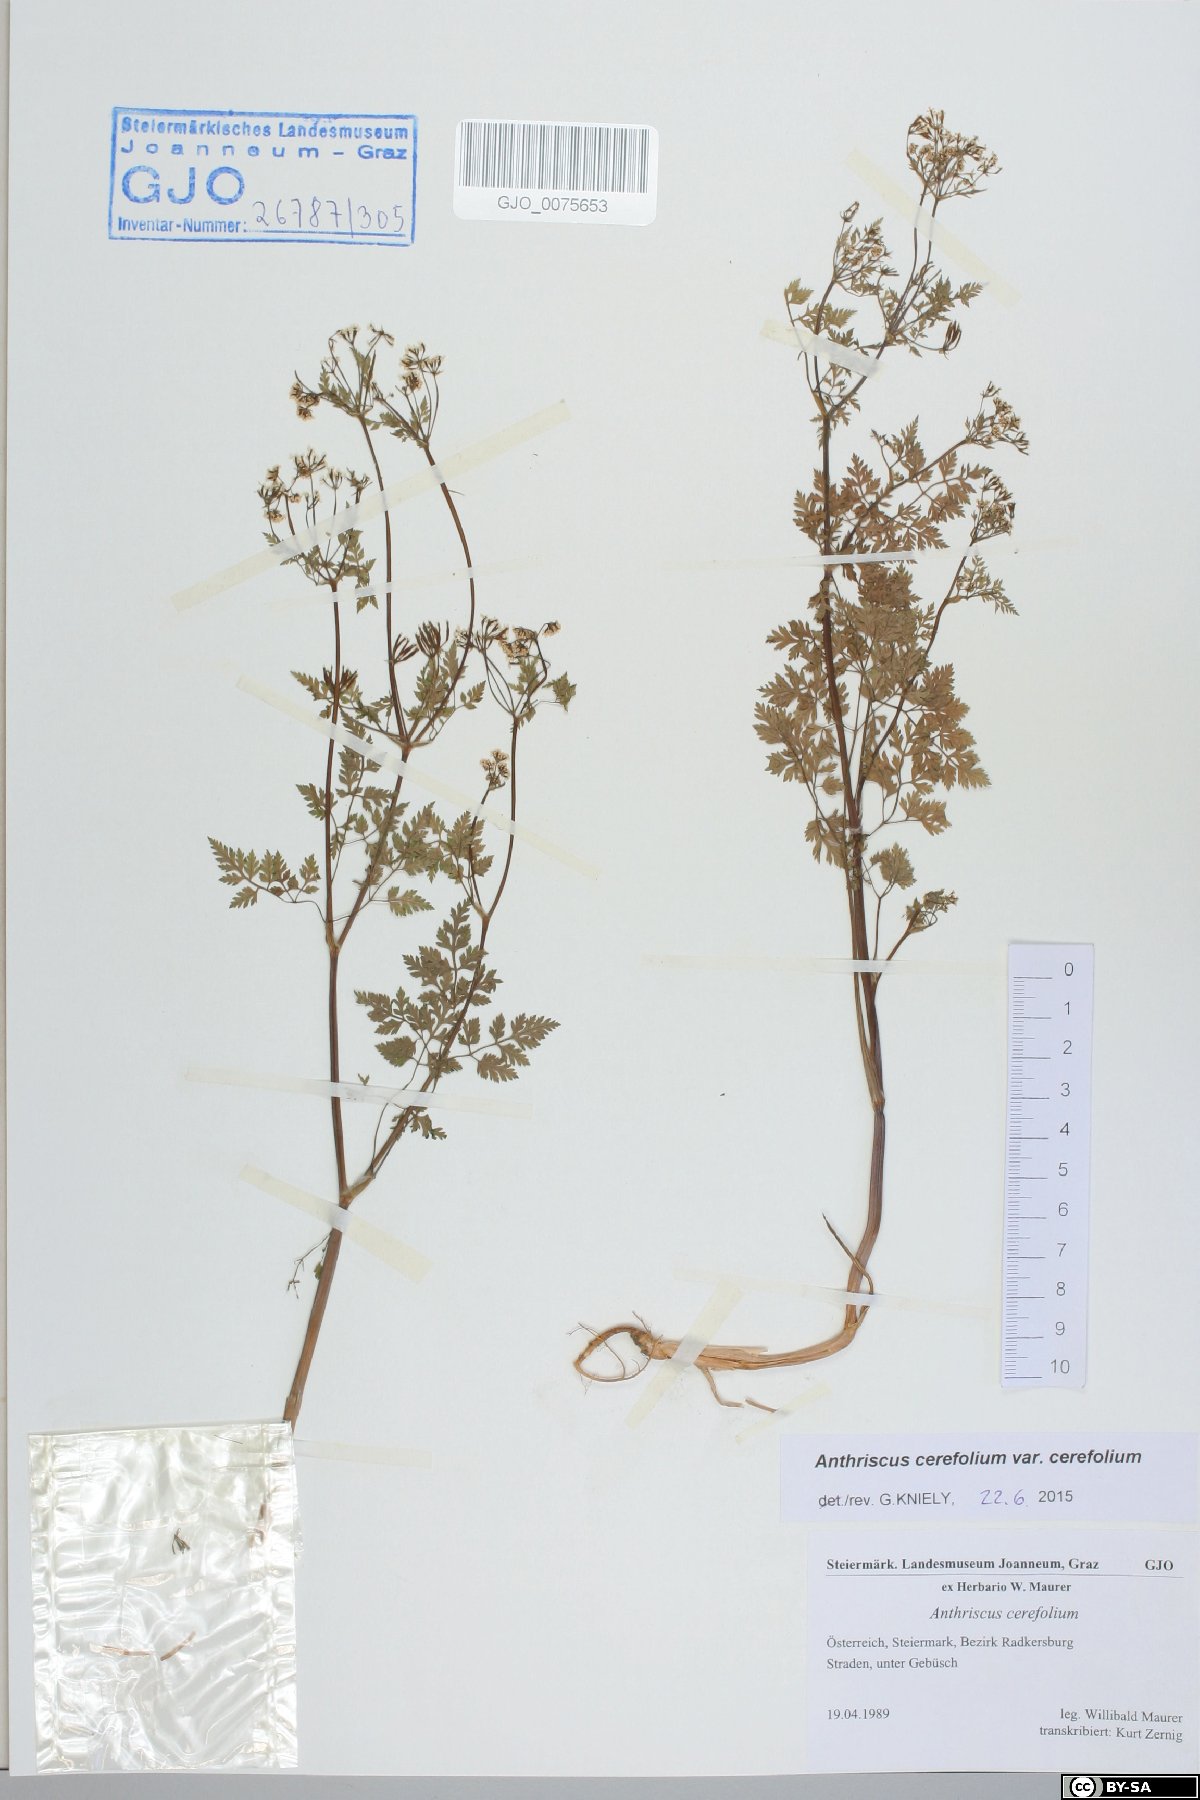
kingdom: Plantae
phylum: Tracheophyta
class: Magnoliopsida
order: Apiales
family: Apiaceae
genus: Anthriscus
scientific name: Anthriscus cerefolium
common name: Garden chervil
